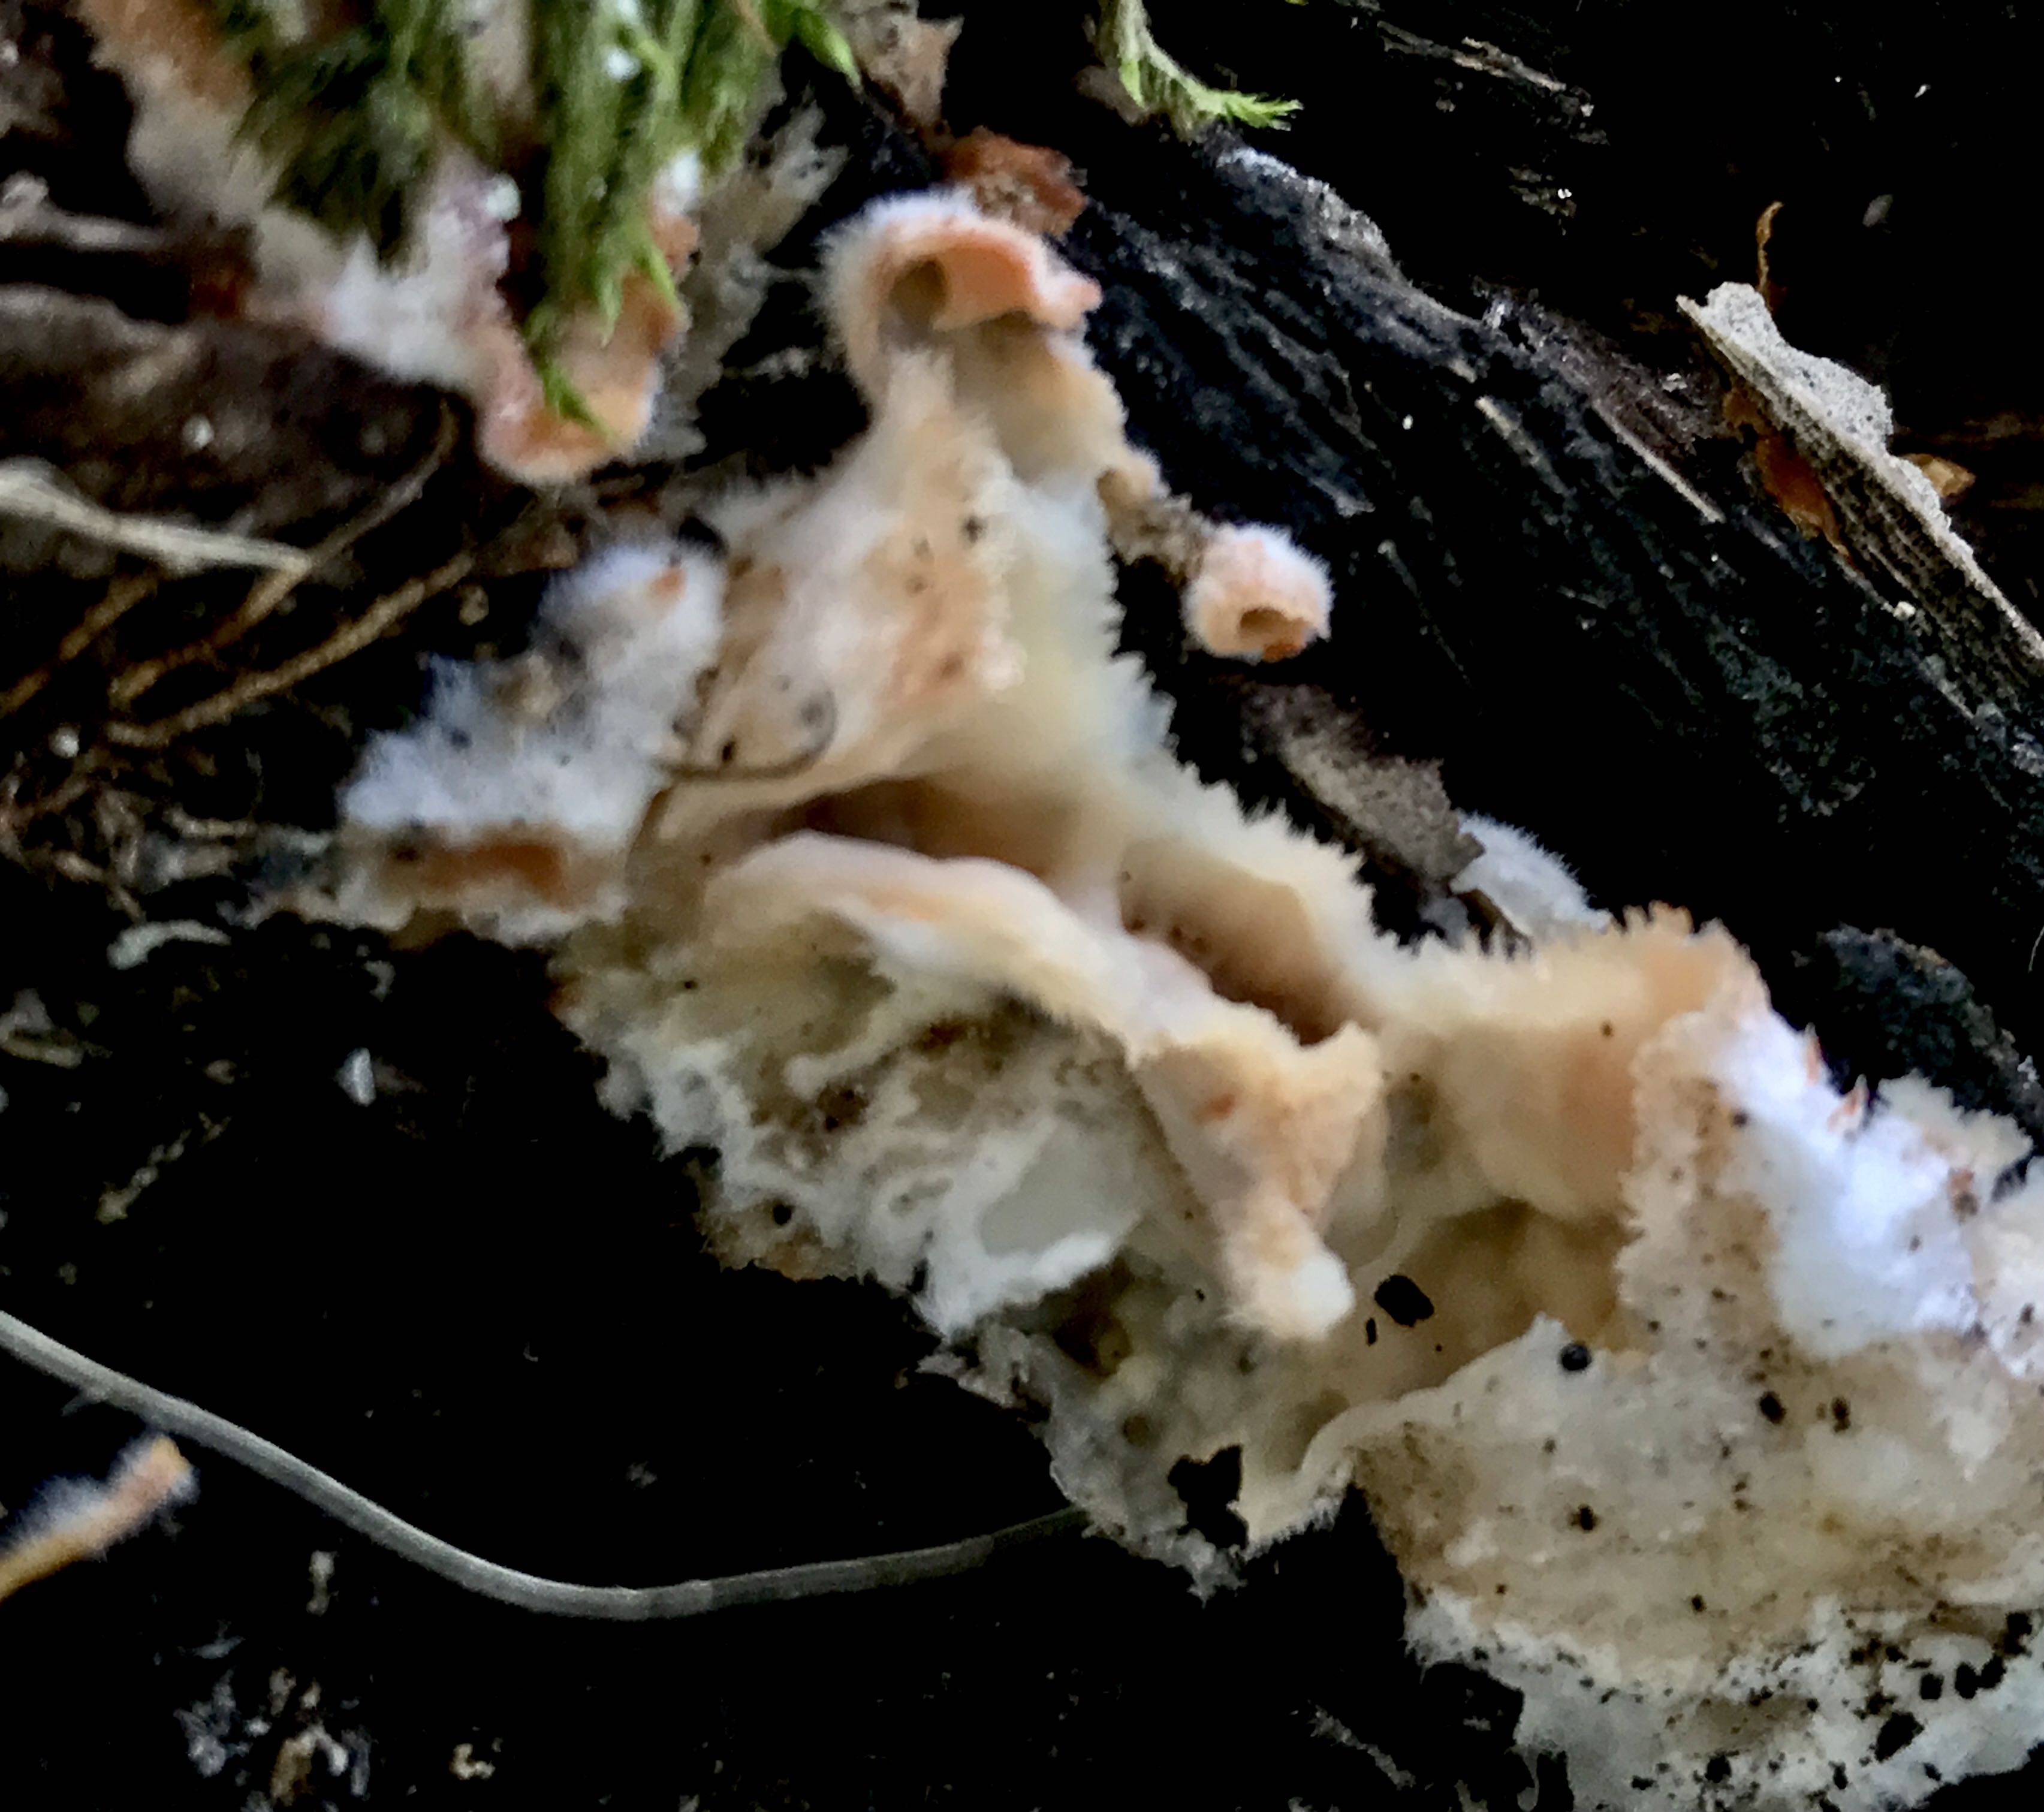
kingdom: Fungi
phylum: Basidiomycota
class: Agaricomycetes
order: Polyporales
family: Meruliaceae
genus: Phlebia
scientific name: Phlebia tremellosa
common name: bævrende åresvamp
